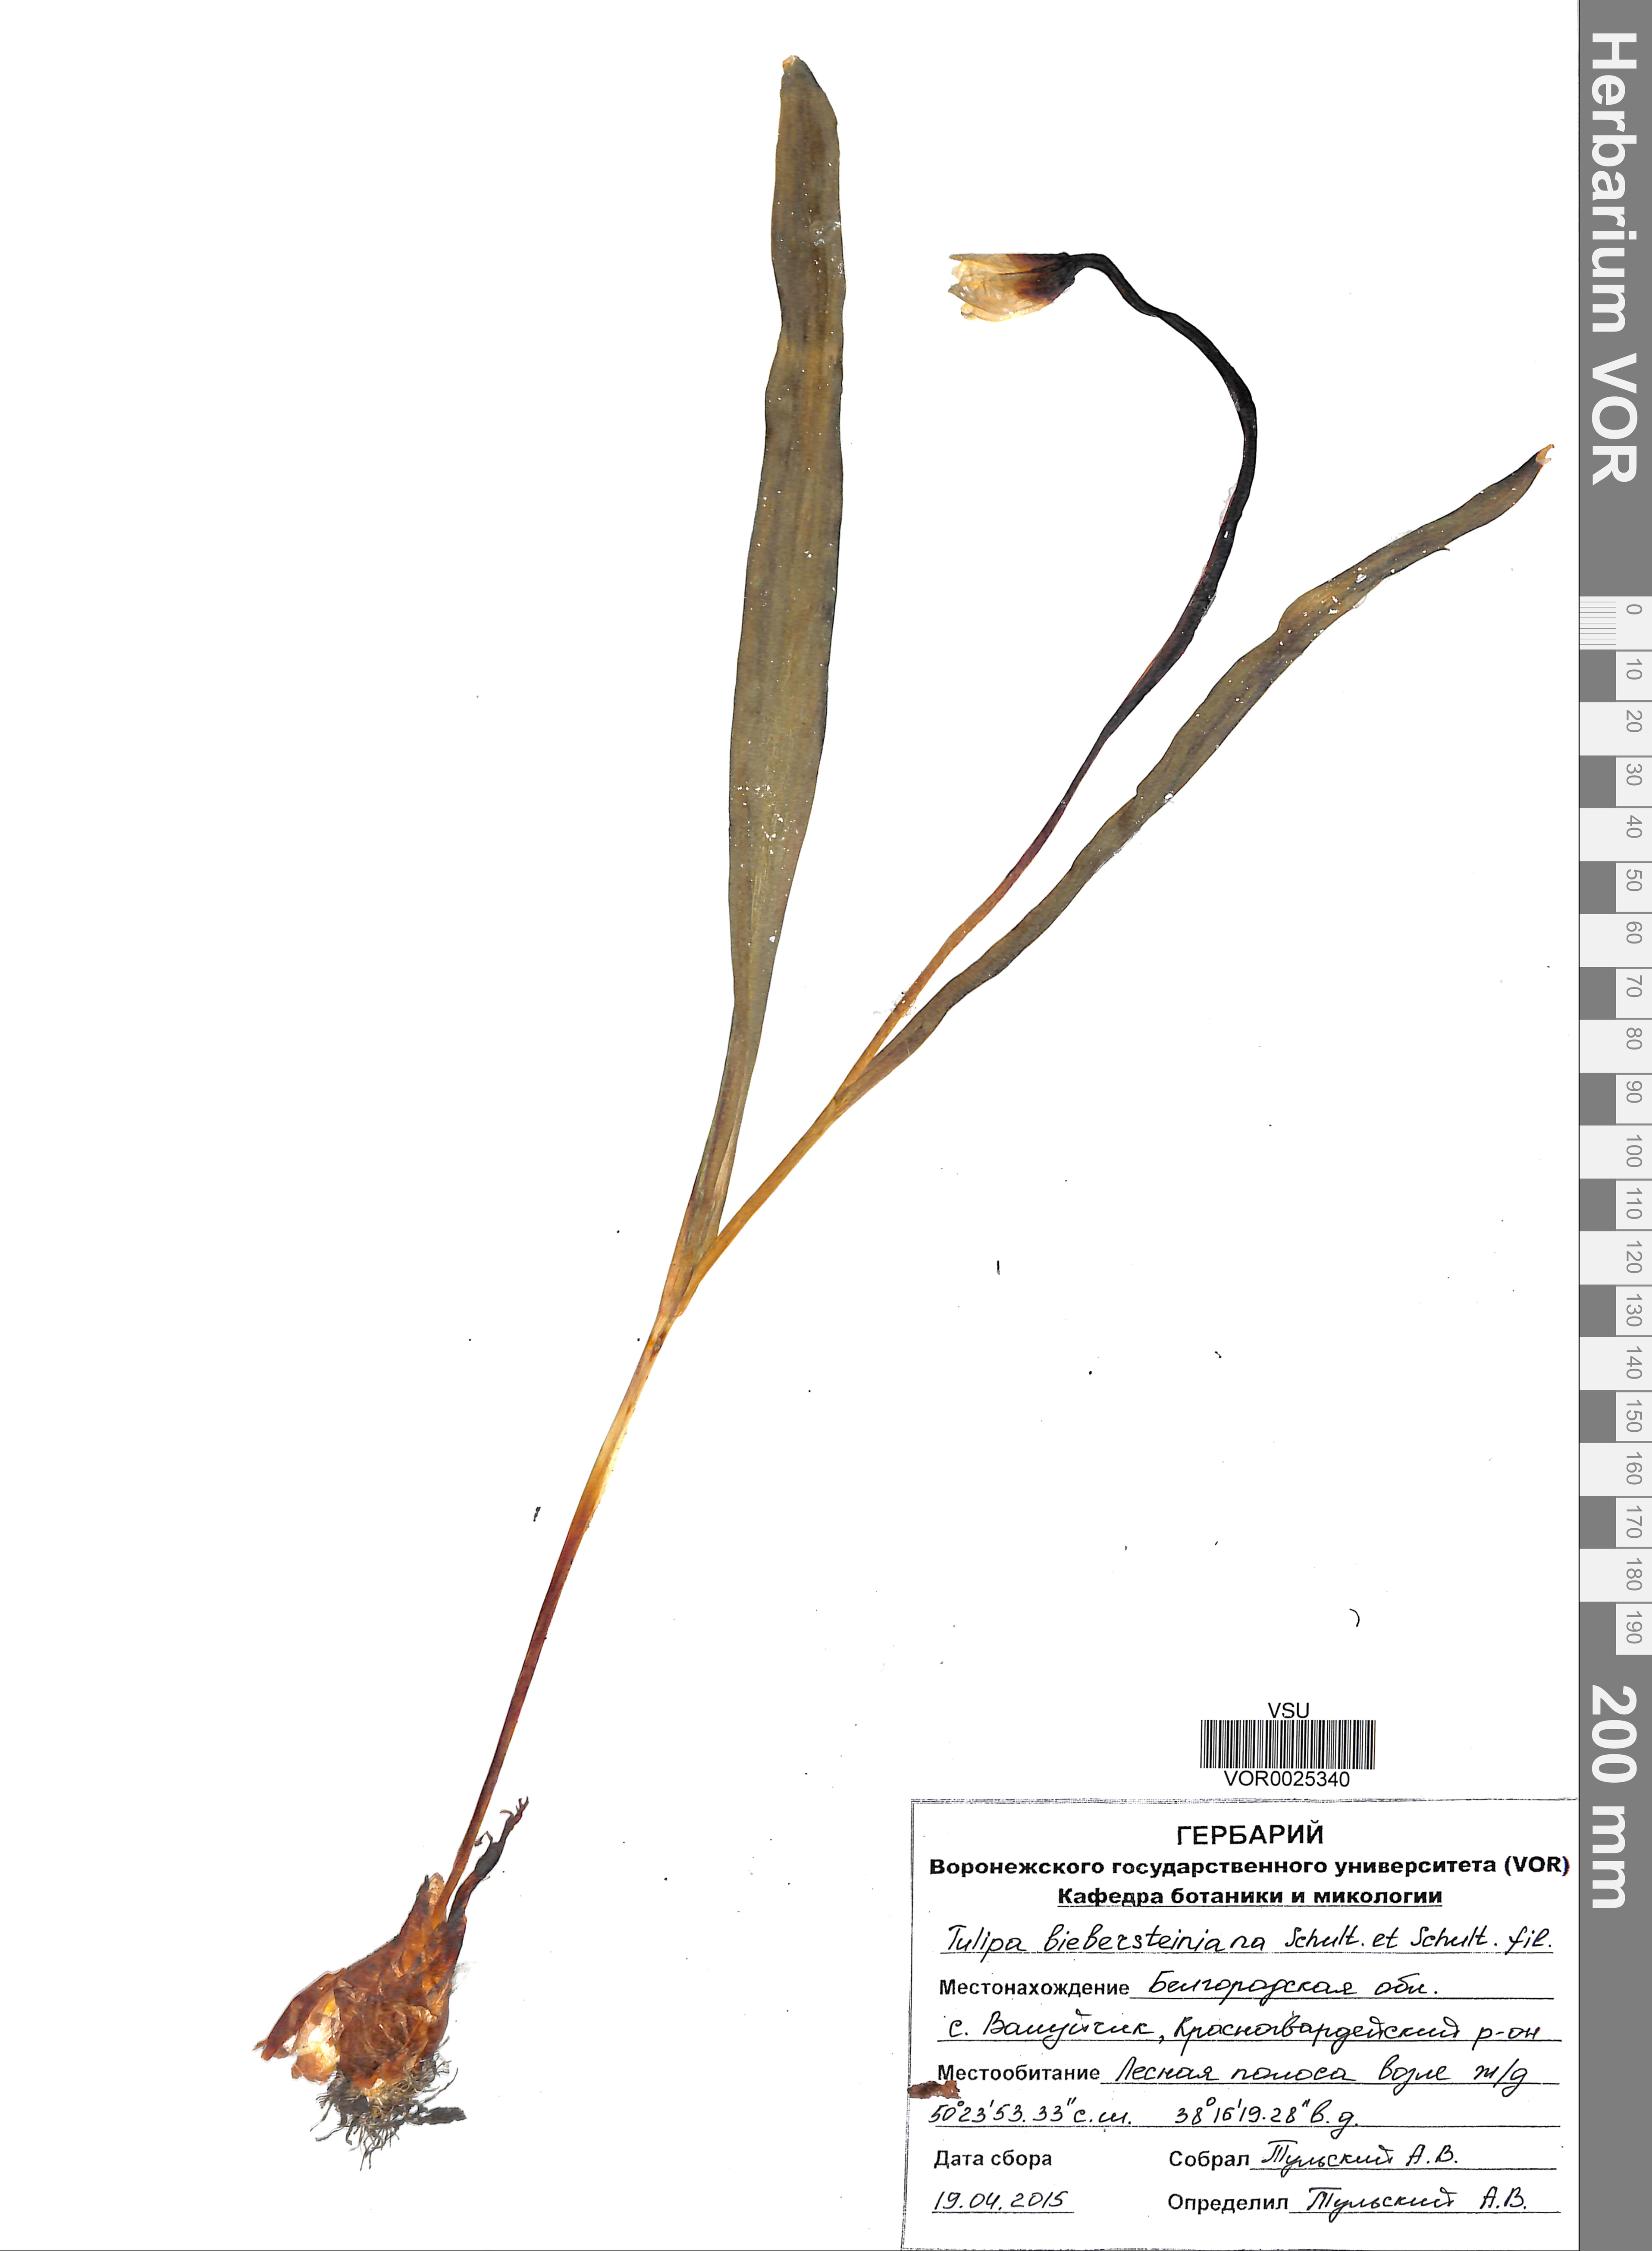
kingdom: Plantae
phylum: Tracheophyta
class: Liliopsida
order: Liliales
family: Liliaceae
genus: Tulipa
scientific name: Tulipa sylvestris
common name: Wild tulip
